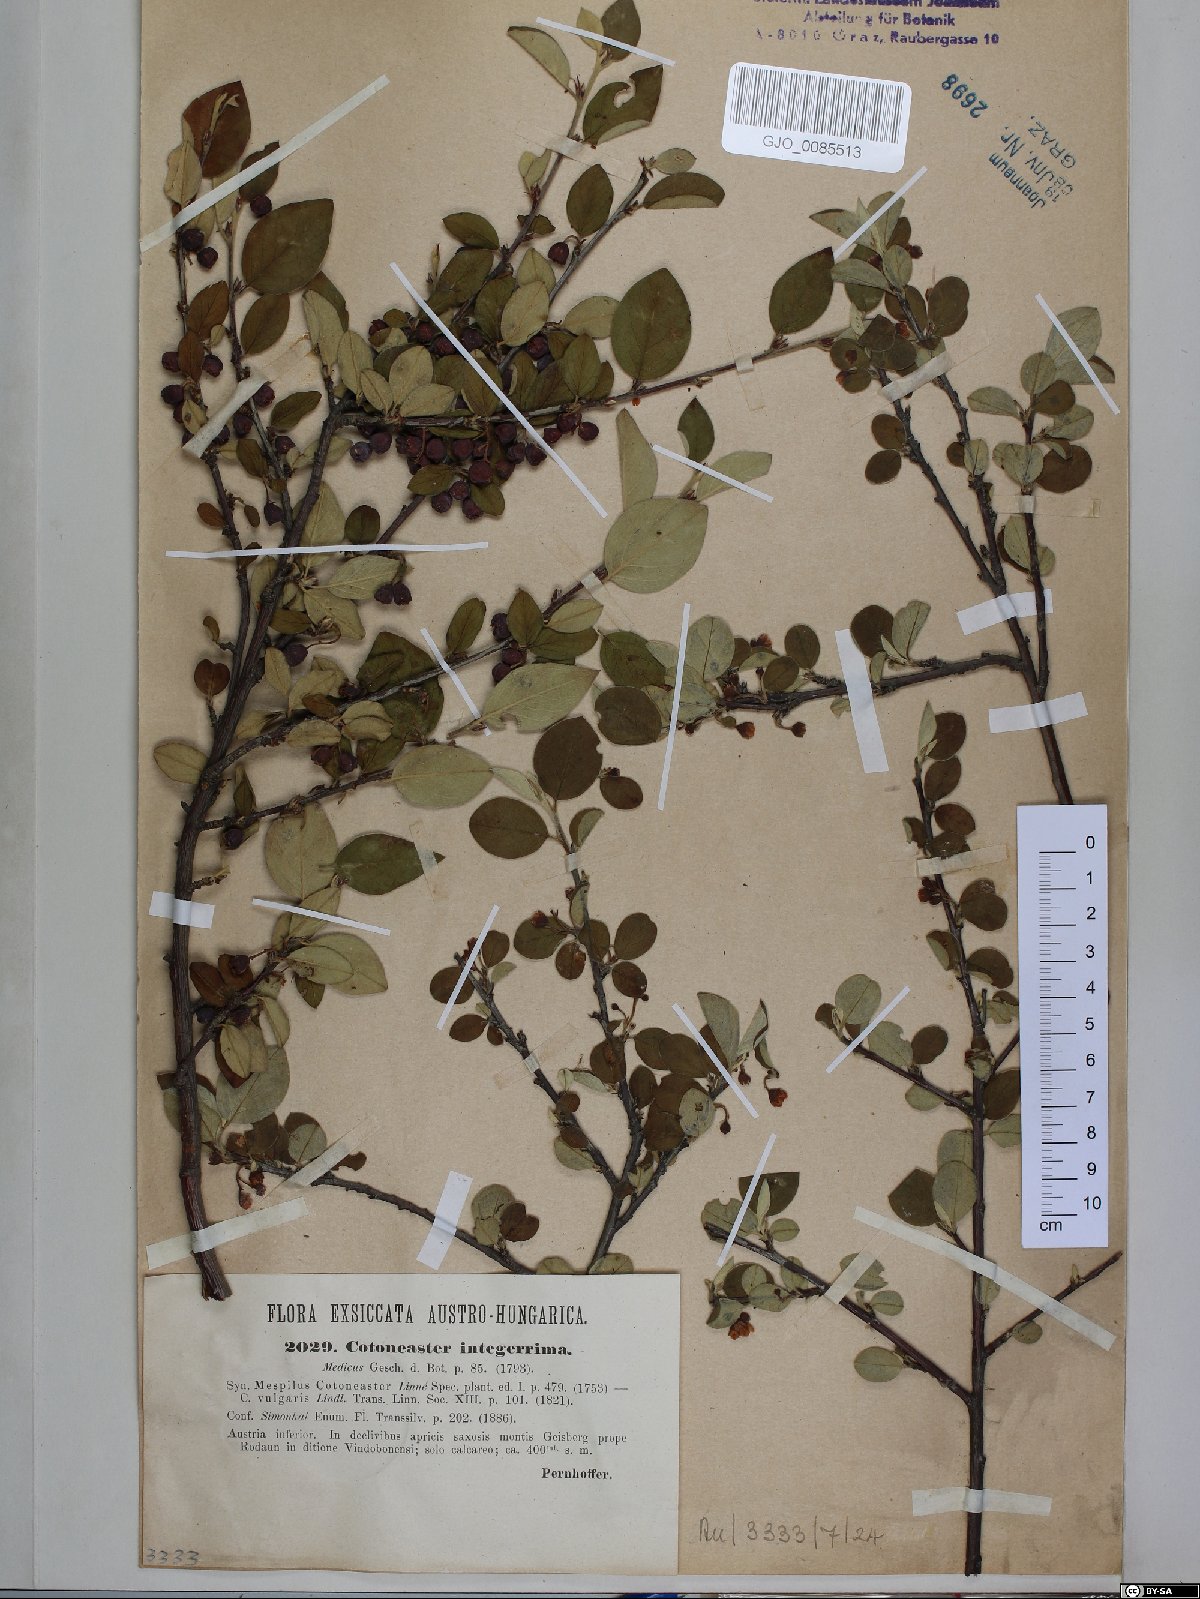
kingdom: Plantae
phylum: Tracheophyta
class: Magnoliopsida
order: Rosales
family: Rosaceae
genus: Cotoneaster
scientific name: Cotoneaster integerrimus
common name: Wild cotoneaster
